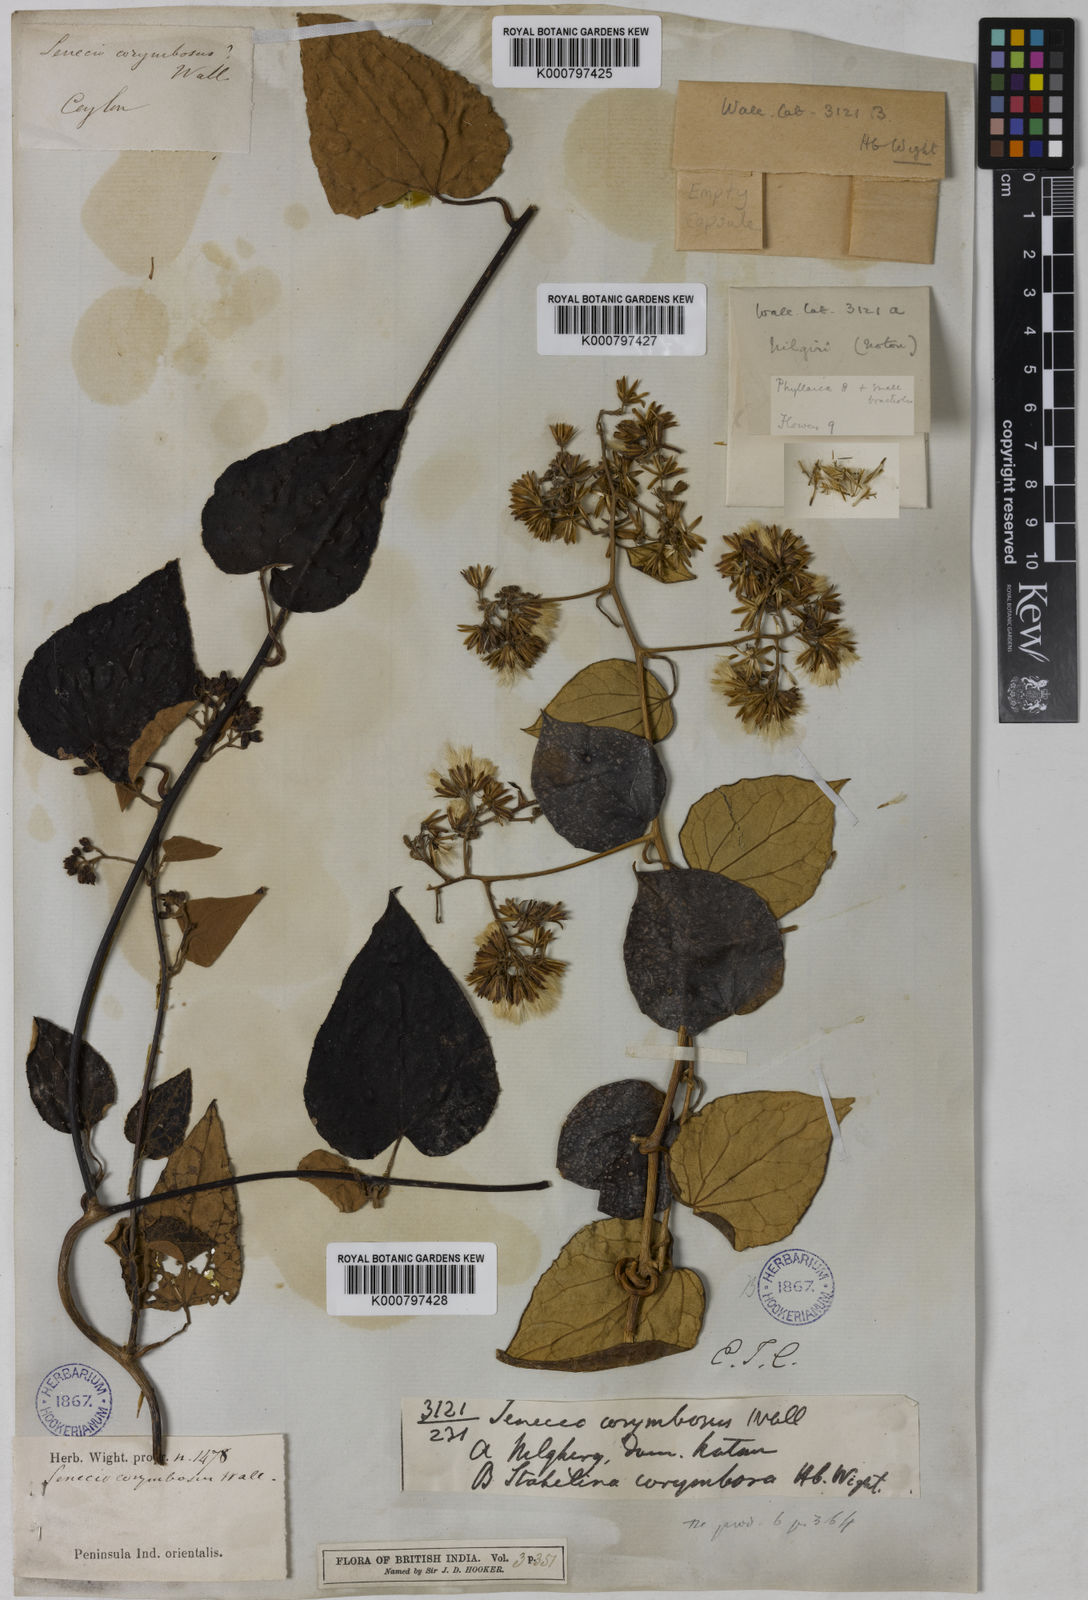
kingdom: Plantae
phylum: Tracheophyta
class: Magnoliopsida
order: Asterales
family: Asteraceae
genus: Cissampelopsis
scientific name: Cissampelopsis corymbosa
